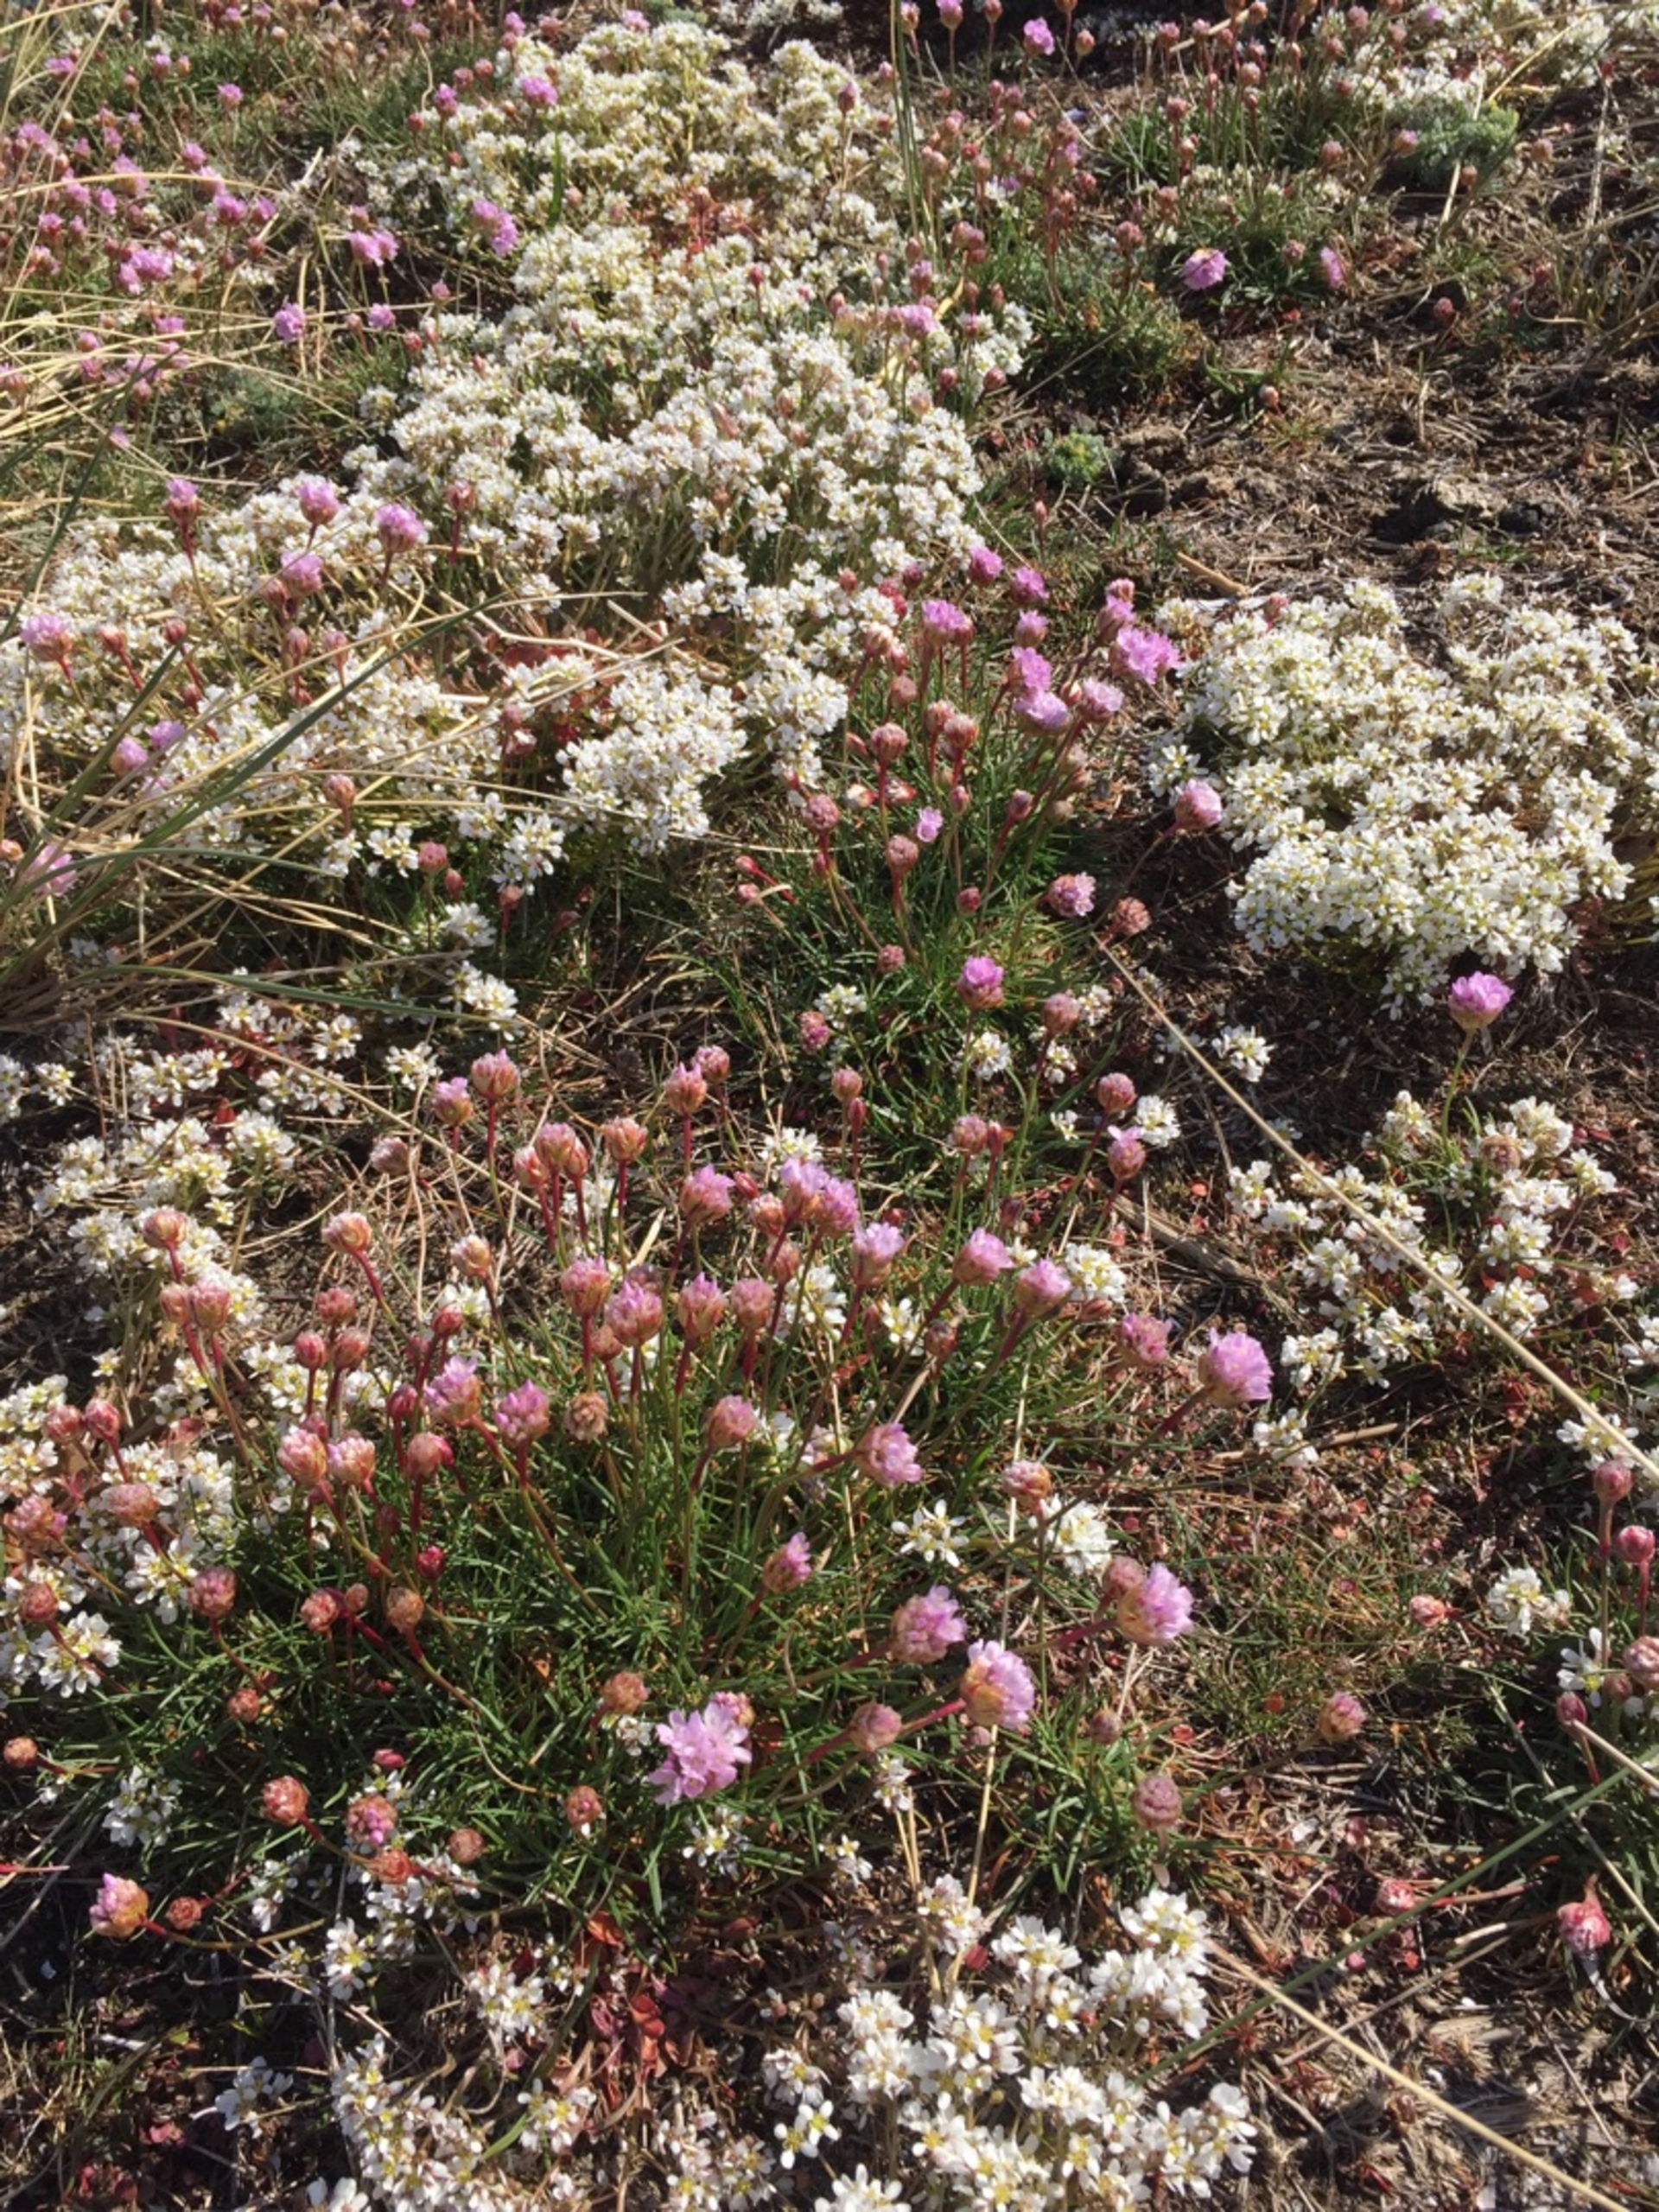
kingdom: Plantae
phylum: Tracheophyta
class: Magnoliopsida
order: Caryophyllales
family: Plumbaginaceae
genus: Armeria
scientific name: Armeria maritima
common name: Engelskgræs
